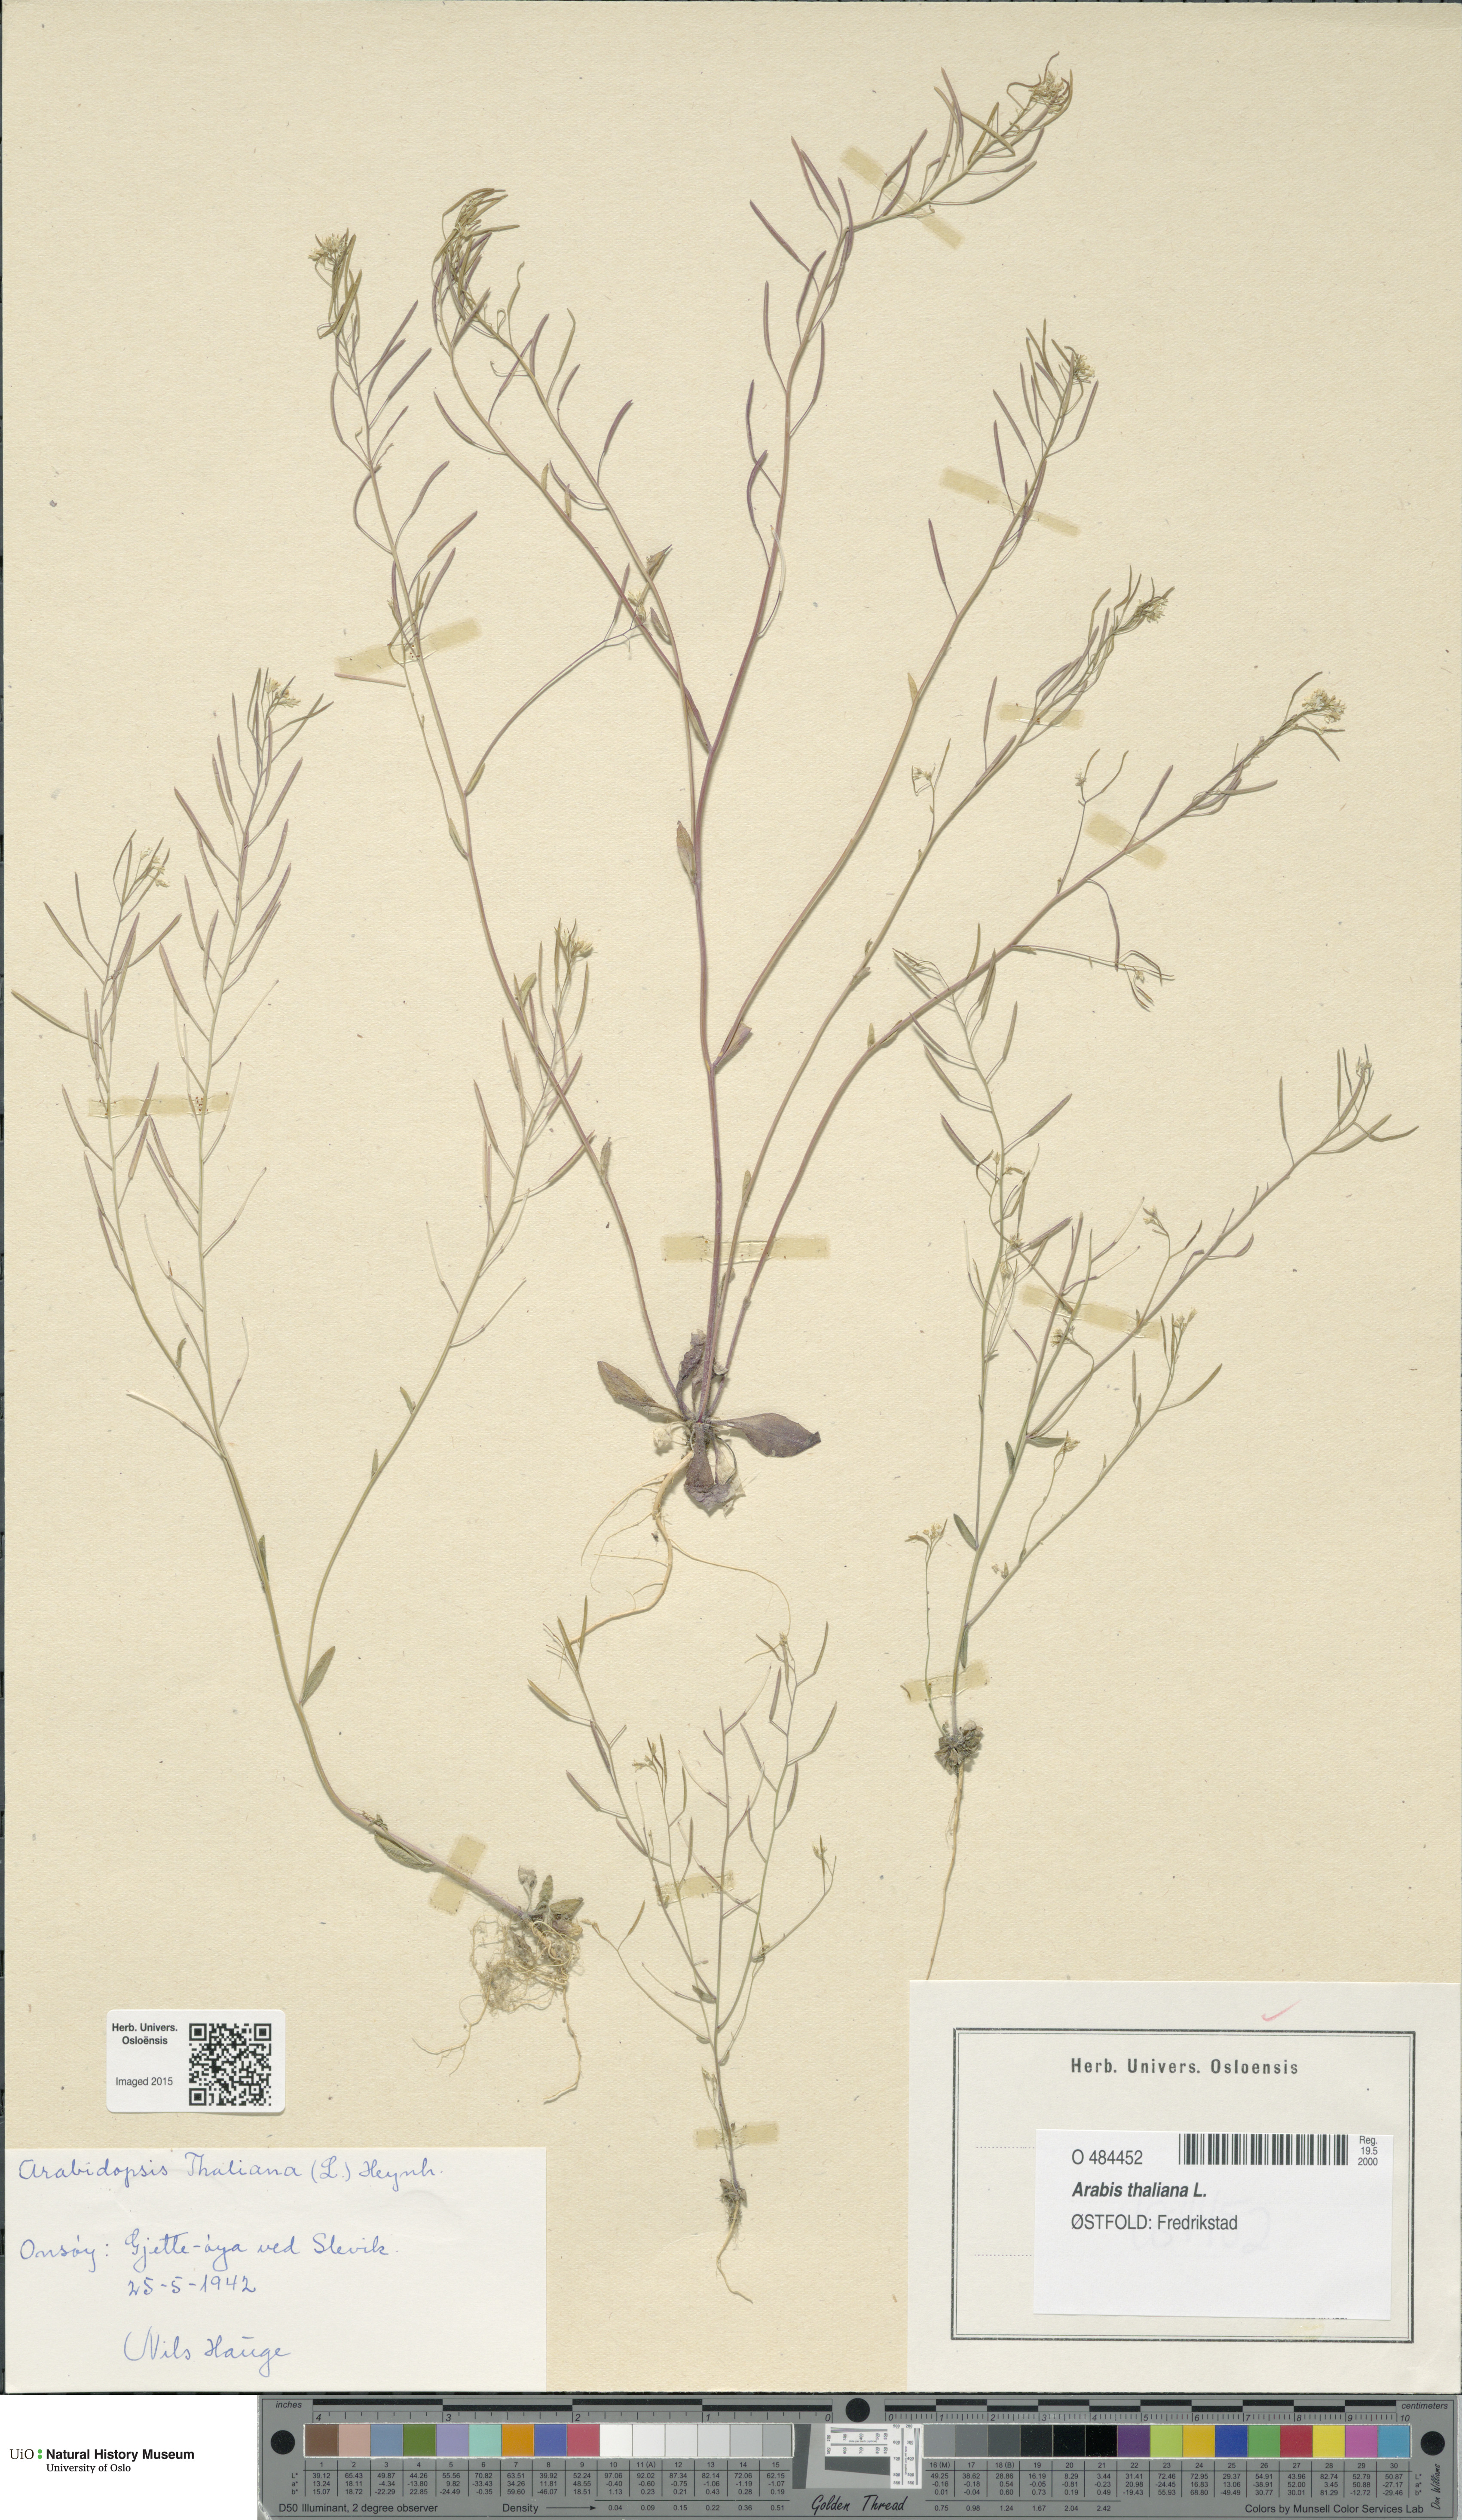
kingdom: Plantae
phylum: Tracheophyta
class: Magnoliopsida
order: Brassicales
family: Brassicaceae
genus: Arabidopsis
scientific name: Arabidopsis thaliana
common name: Thale cress
